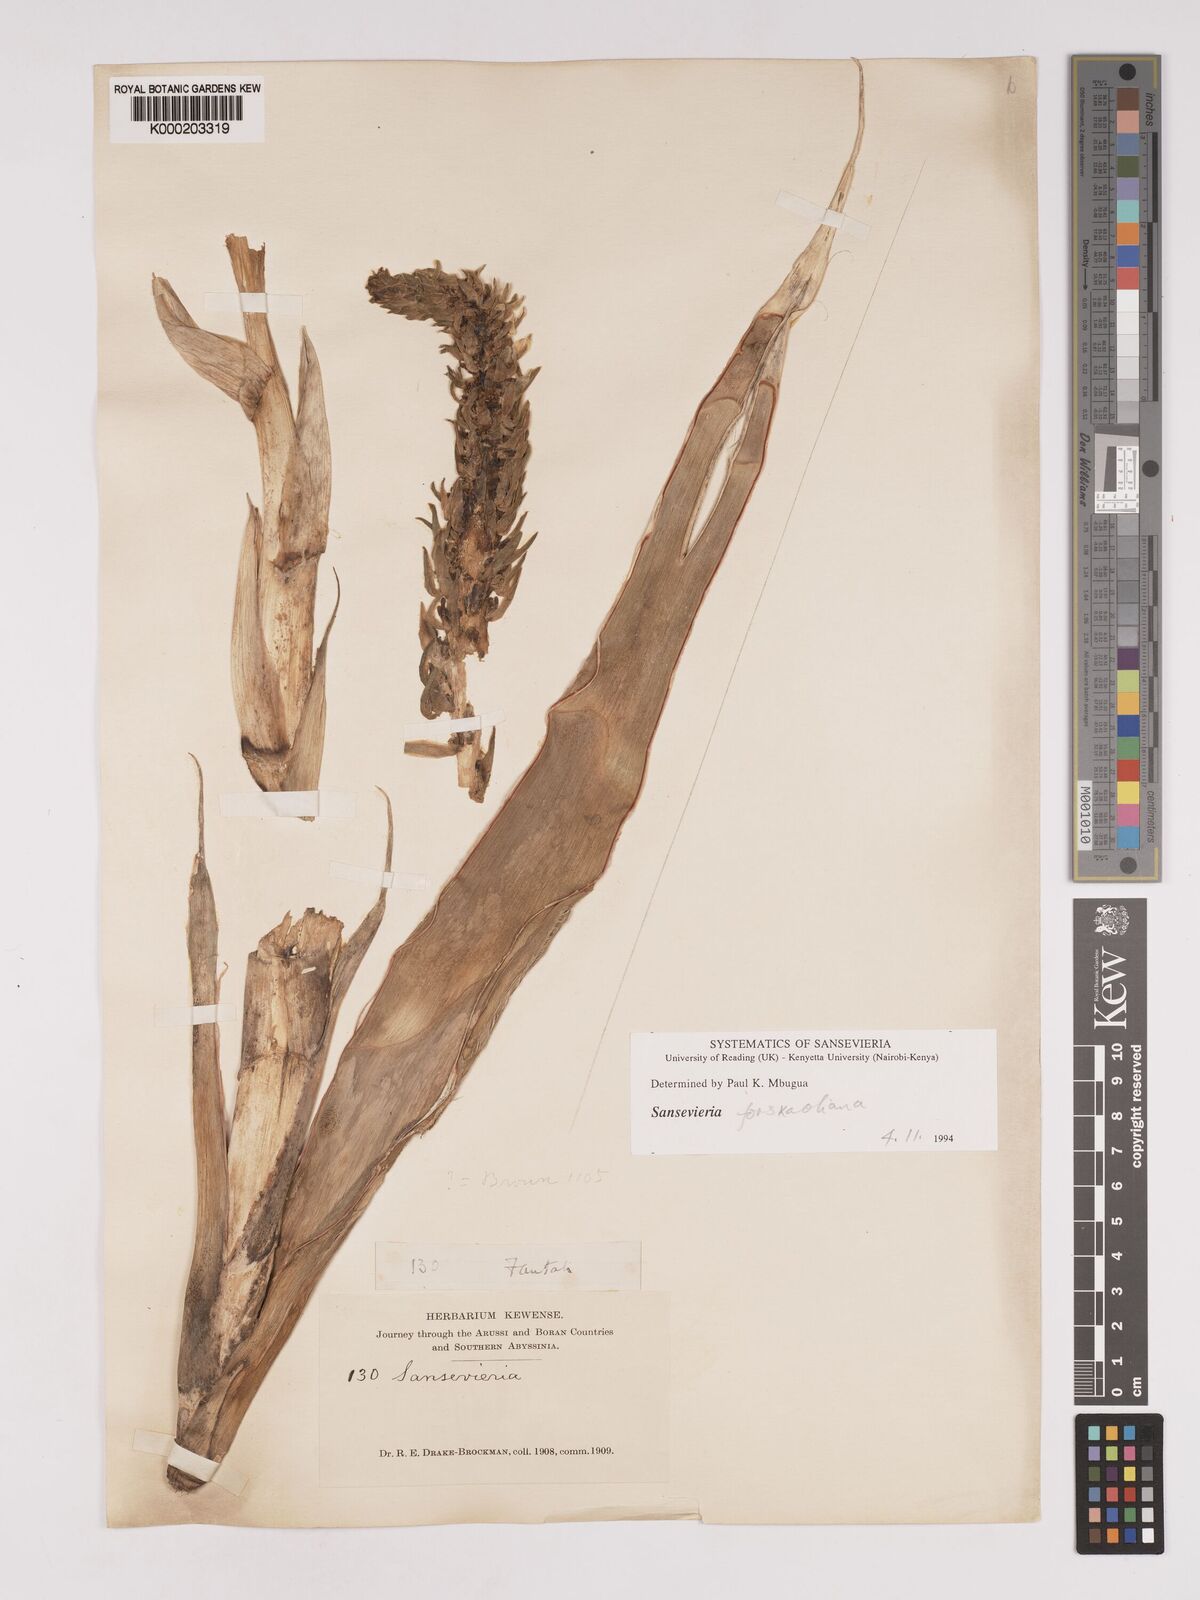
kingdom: Plantae
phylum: Tracheophyta
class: Liliopsida
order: Asparagales
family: Asparagaceae
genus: Dracaena
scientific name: Dracaena
